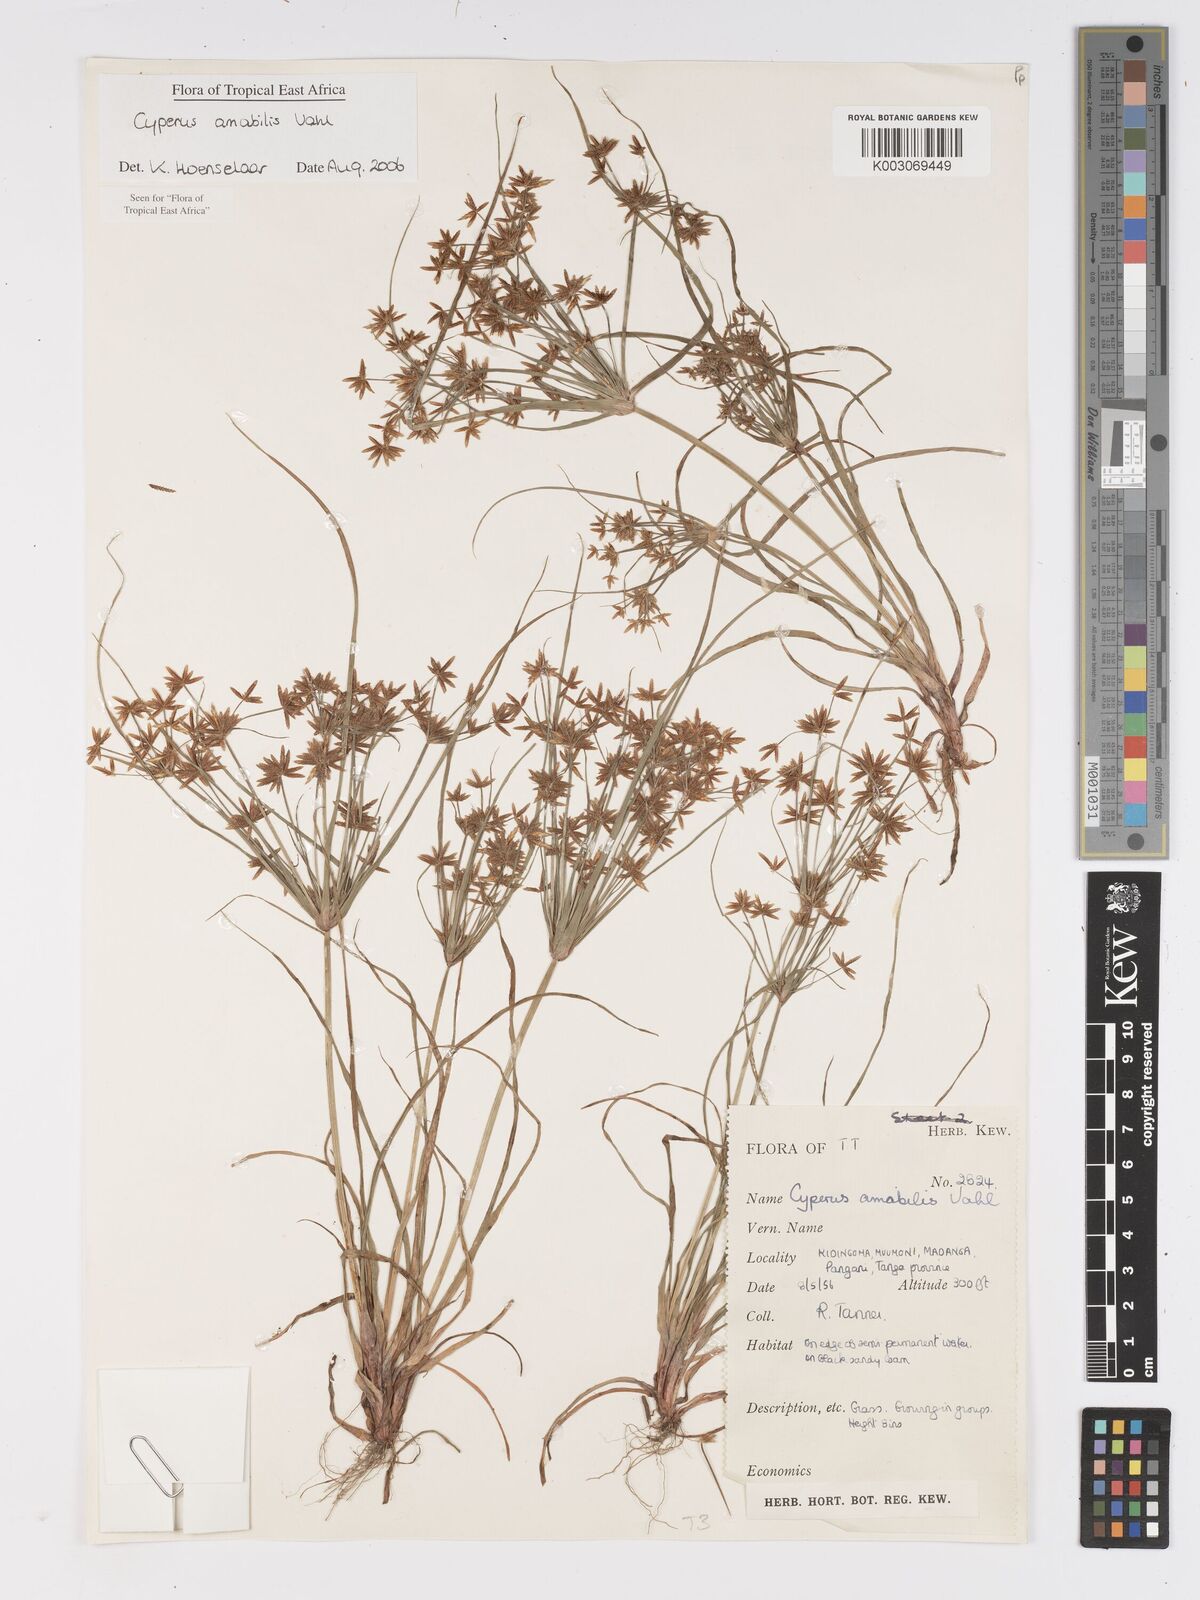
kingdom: Plantae
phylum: Tracheophyta
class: Liliopsida
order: Poales
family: Cyperaceae
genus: Cyperus
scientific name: Cyperus amabilis
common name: Foothill flat sedge
